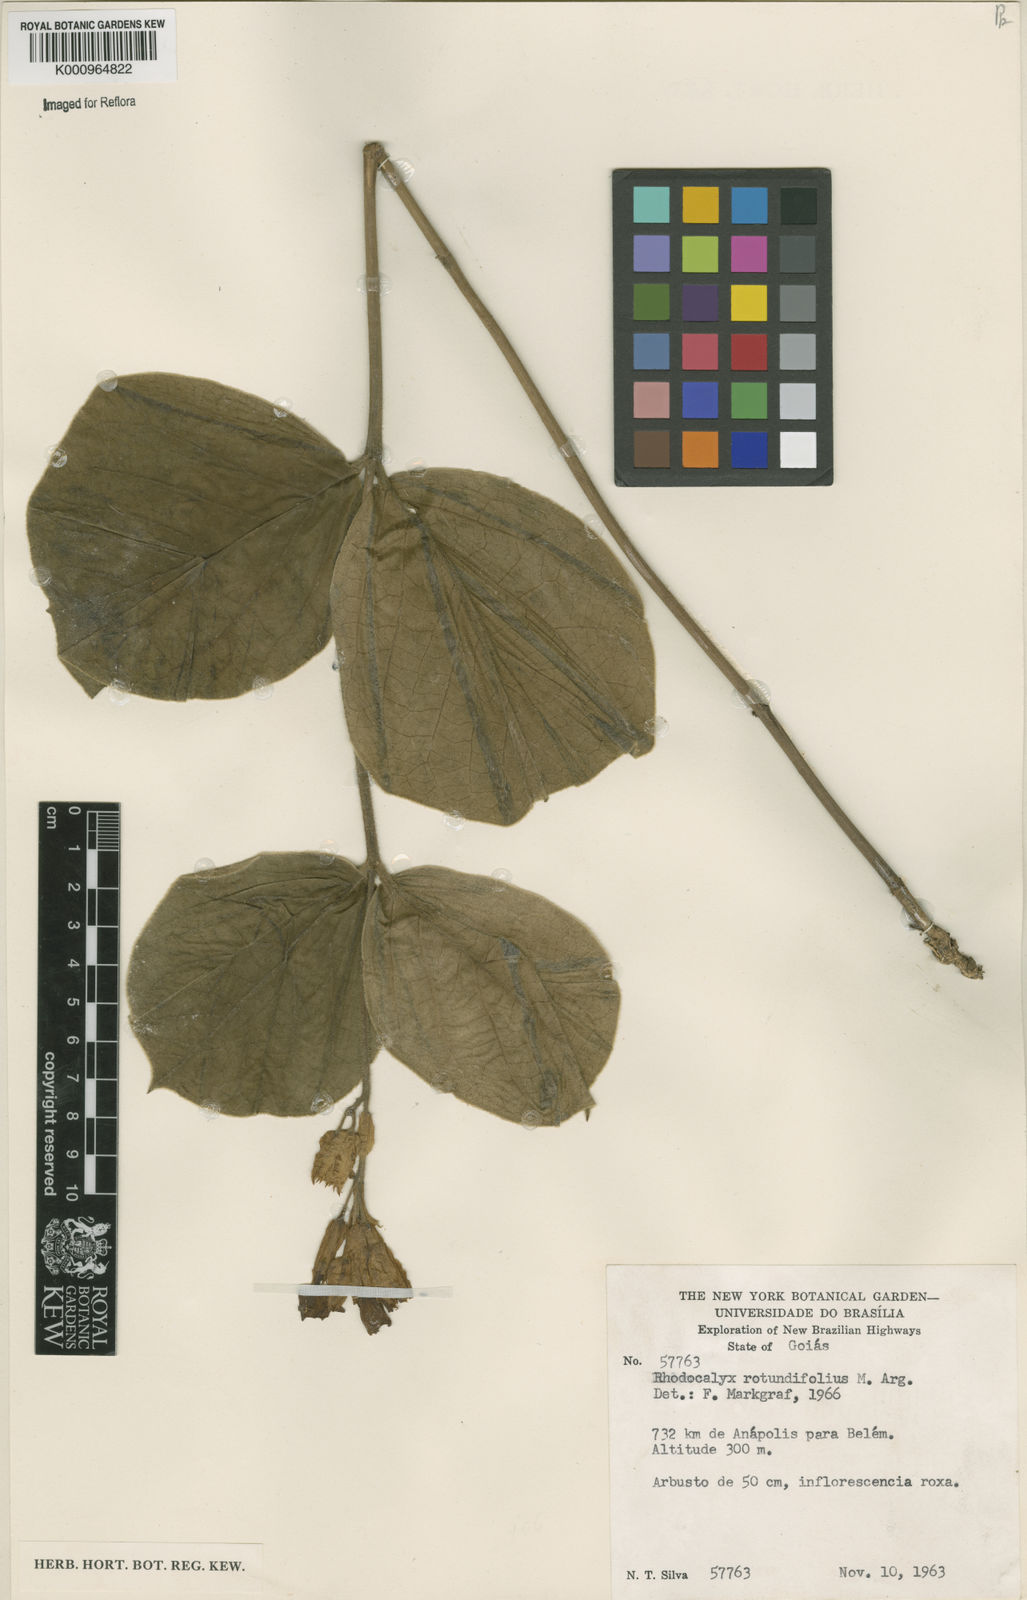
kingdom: Plantae
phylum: Tracheophyta
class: Magnoliopsida
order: Gentianales
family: Apocynaceae
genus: Rhodocalyx
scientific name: Rhodocalyx
